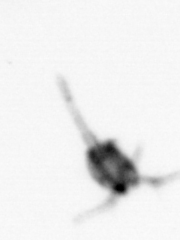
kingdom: Animalia
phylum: Arthropoda
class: Copepoda
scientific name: Copepoda
